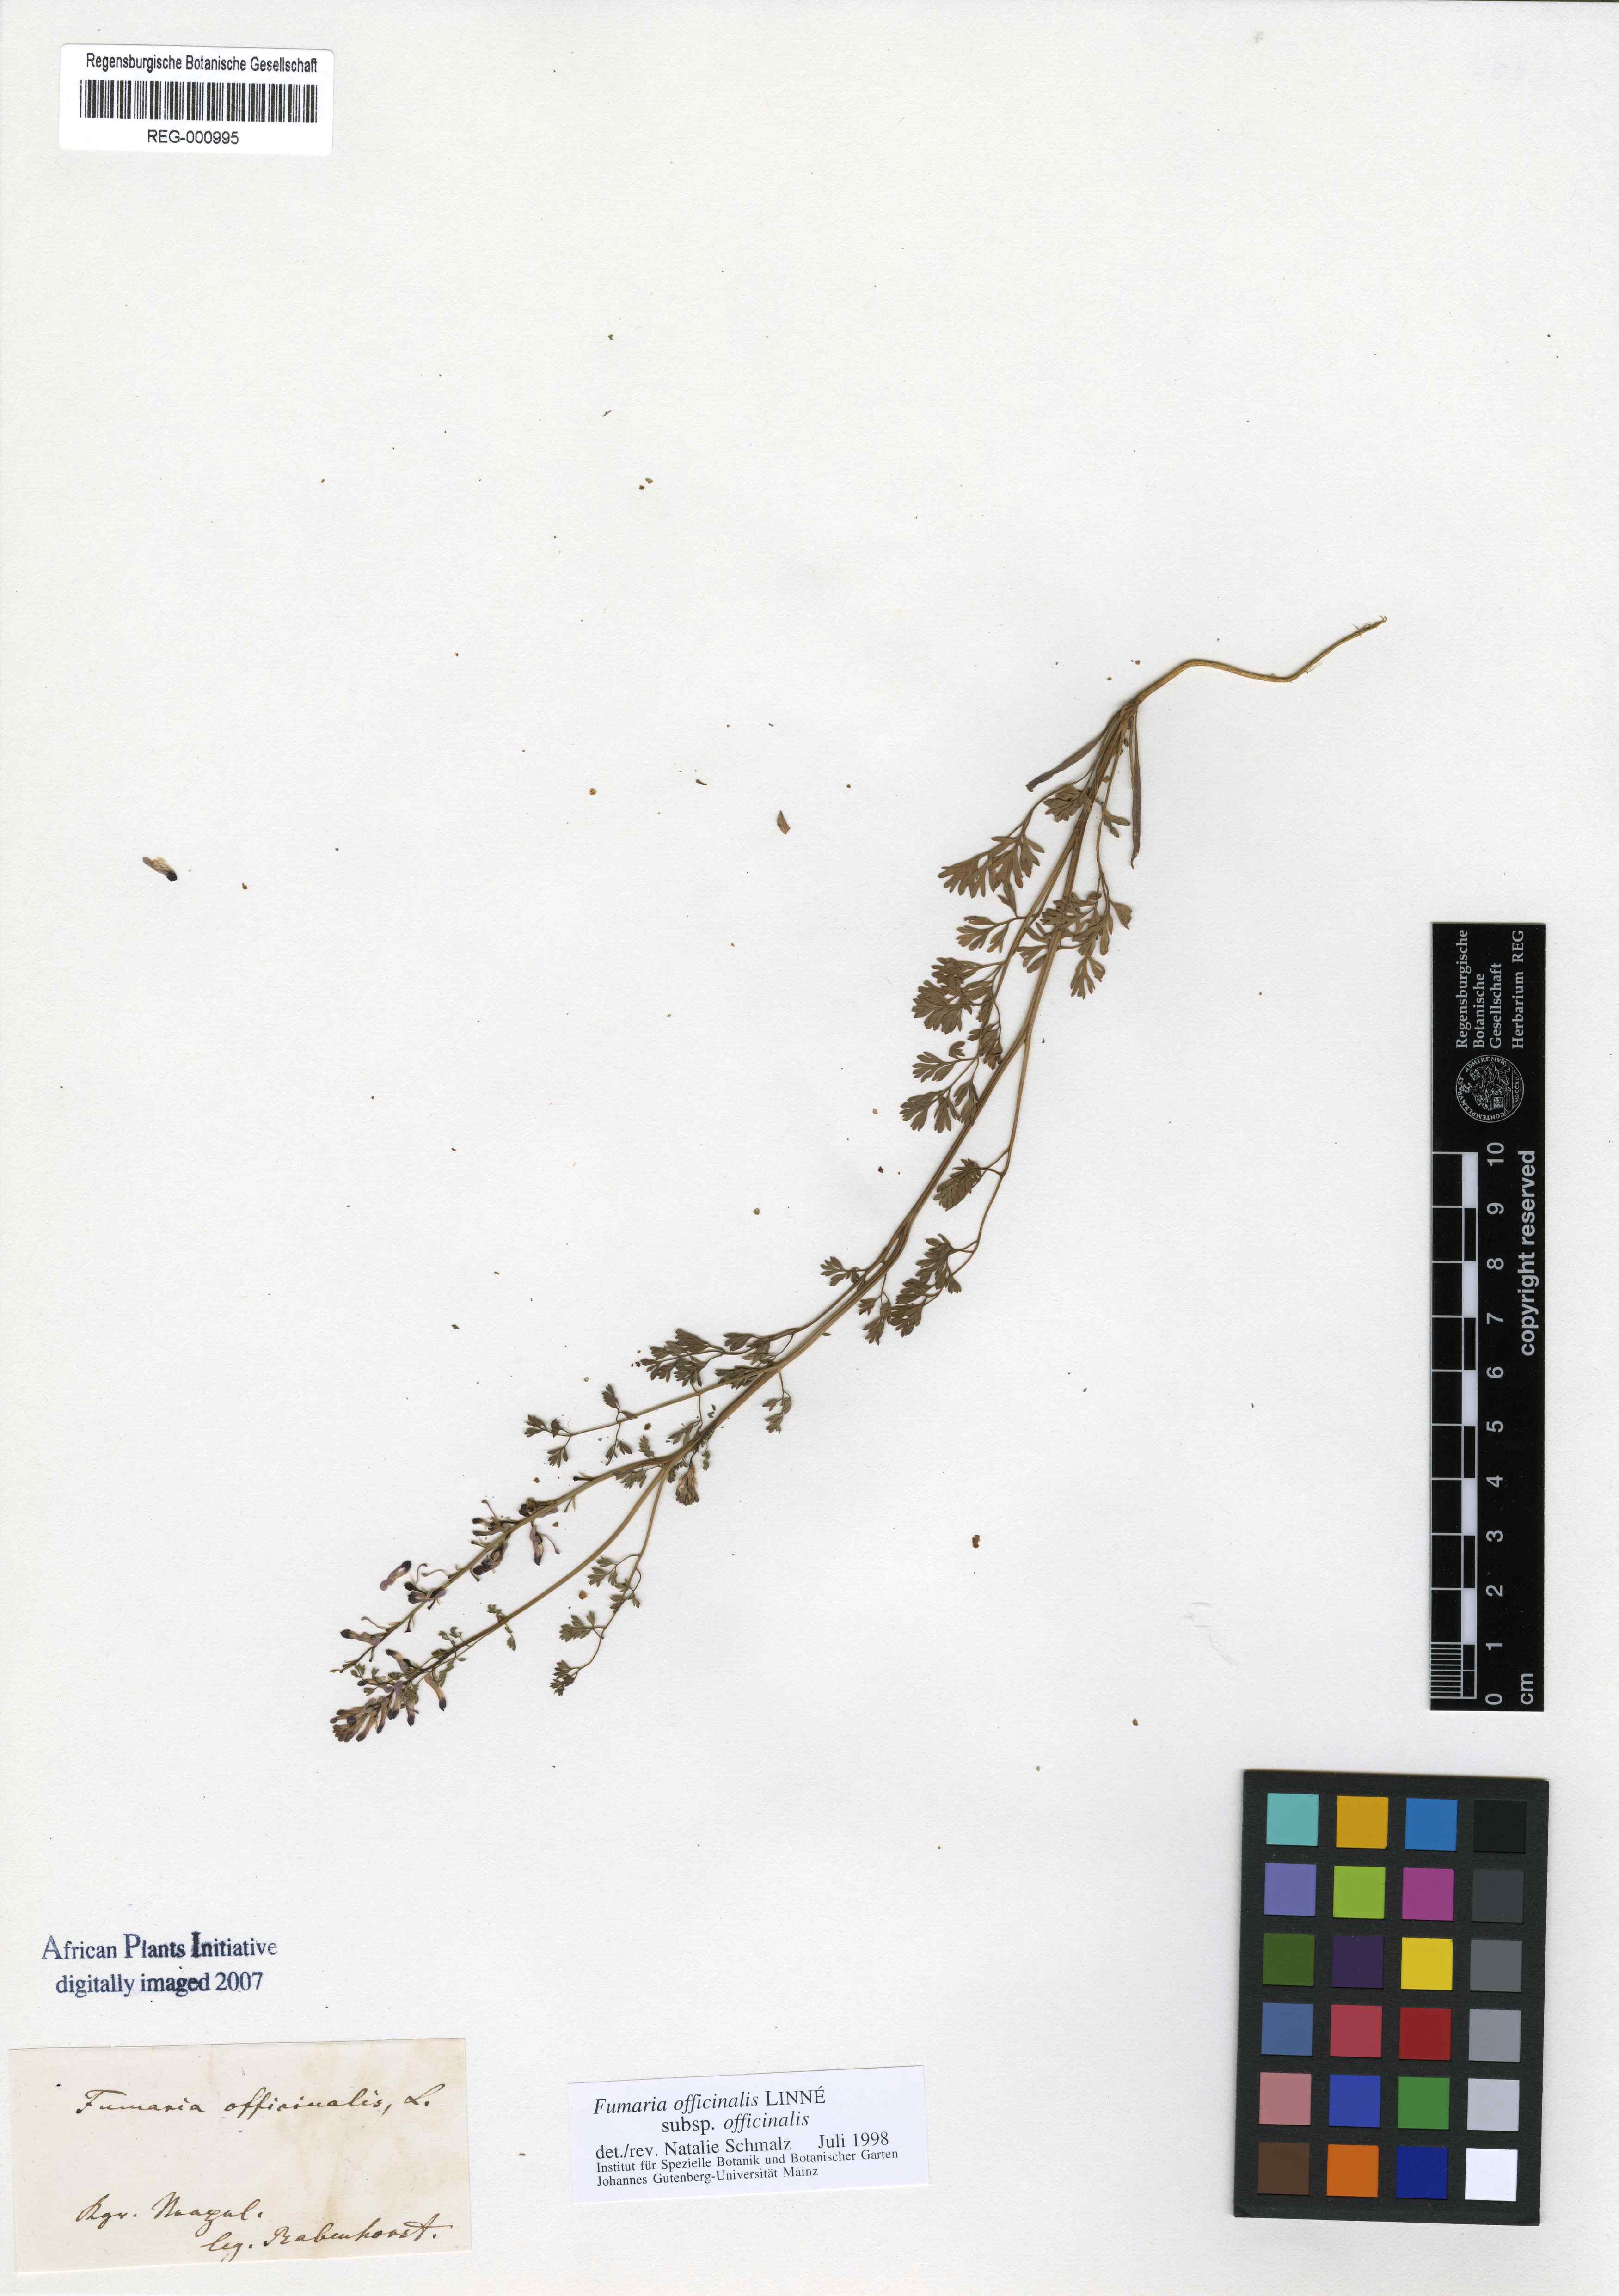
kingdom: Plantae
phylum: Tracheophyta
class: Magnoliopsida
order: Ranunculales
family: Papaveraceae
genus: Fumaria
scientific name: Fumaria officinalis
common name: Common fumitory
